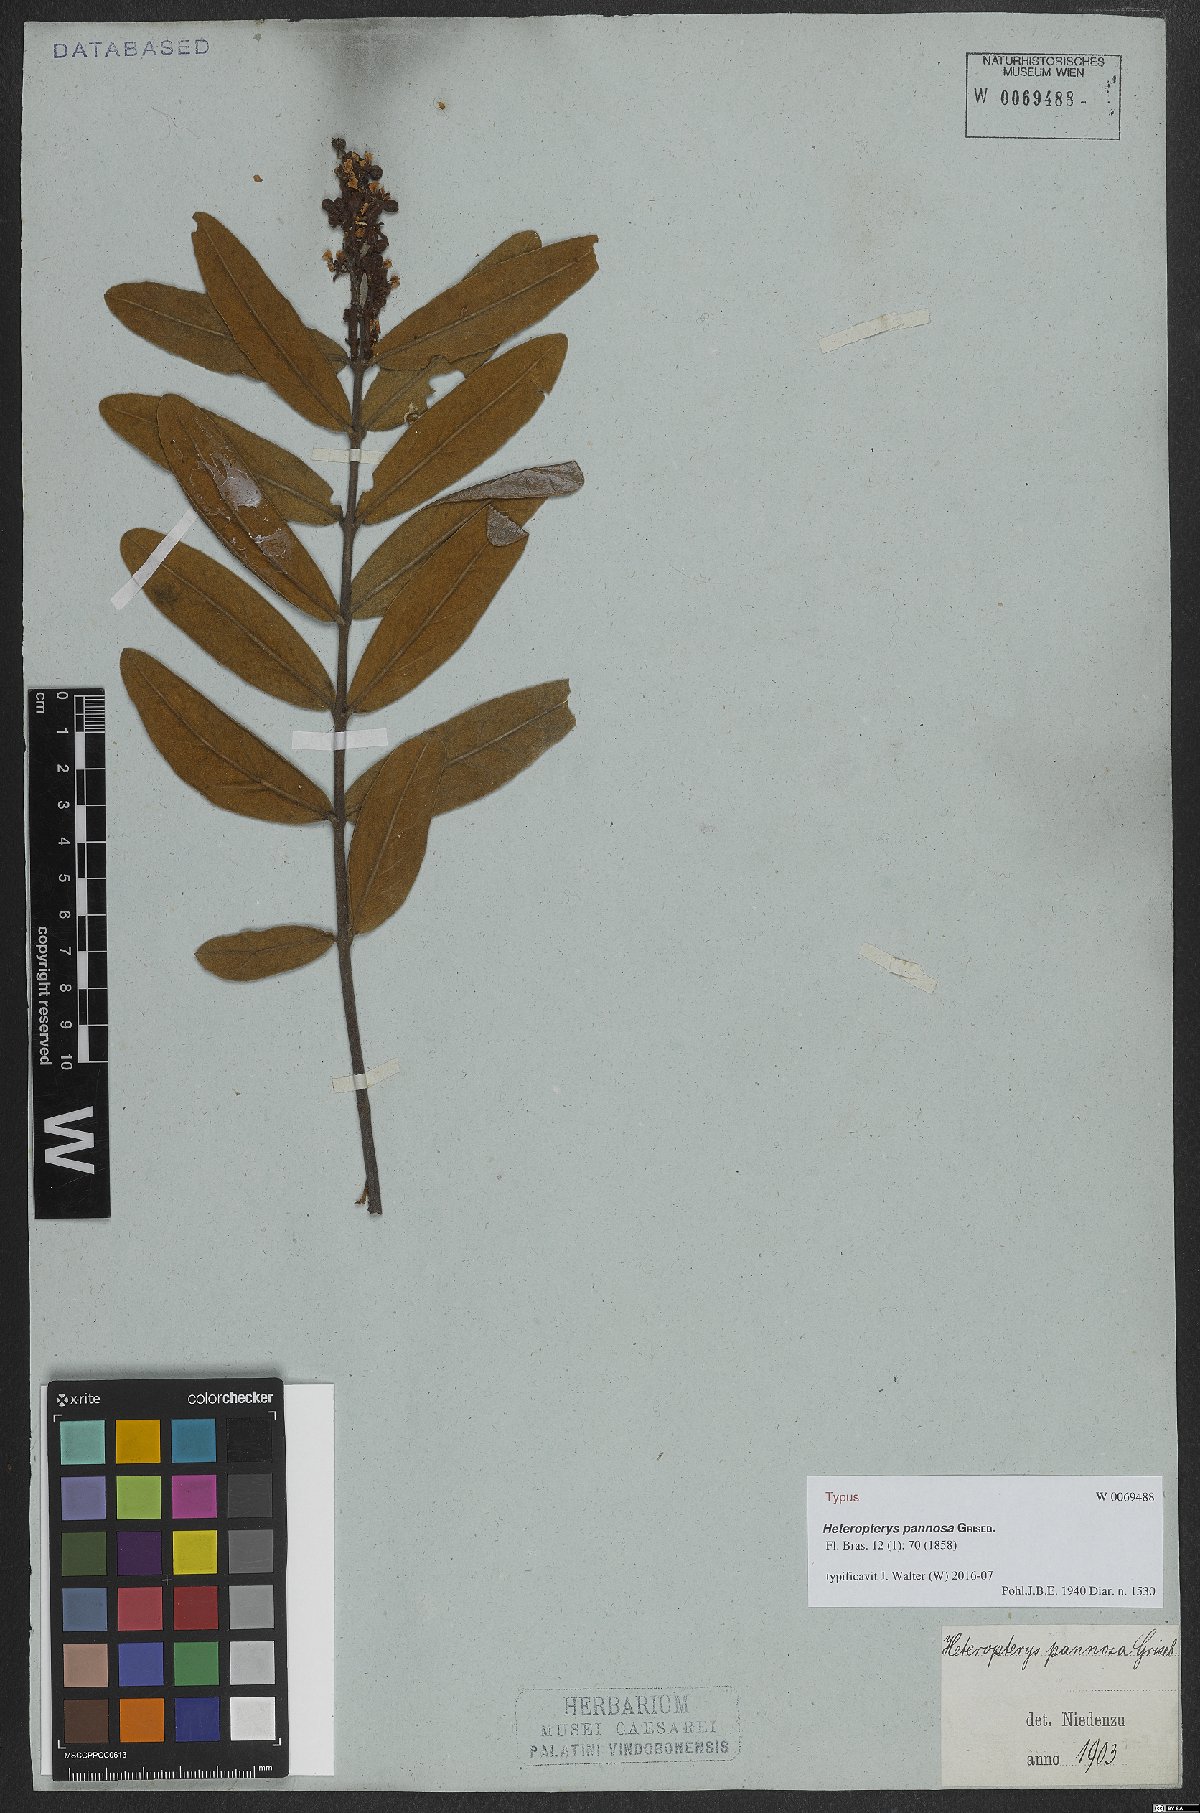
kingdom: Plantae
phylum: Tracheophyta
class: Magnoliopsida
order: Malpighiales
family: Malpighiaceae
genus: Heteropterys
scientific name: Heteropterys pannosa
